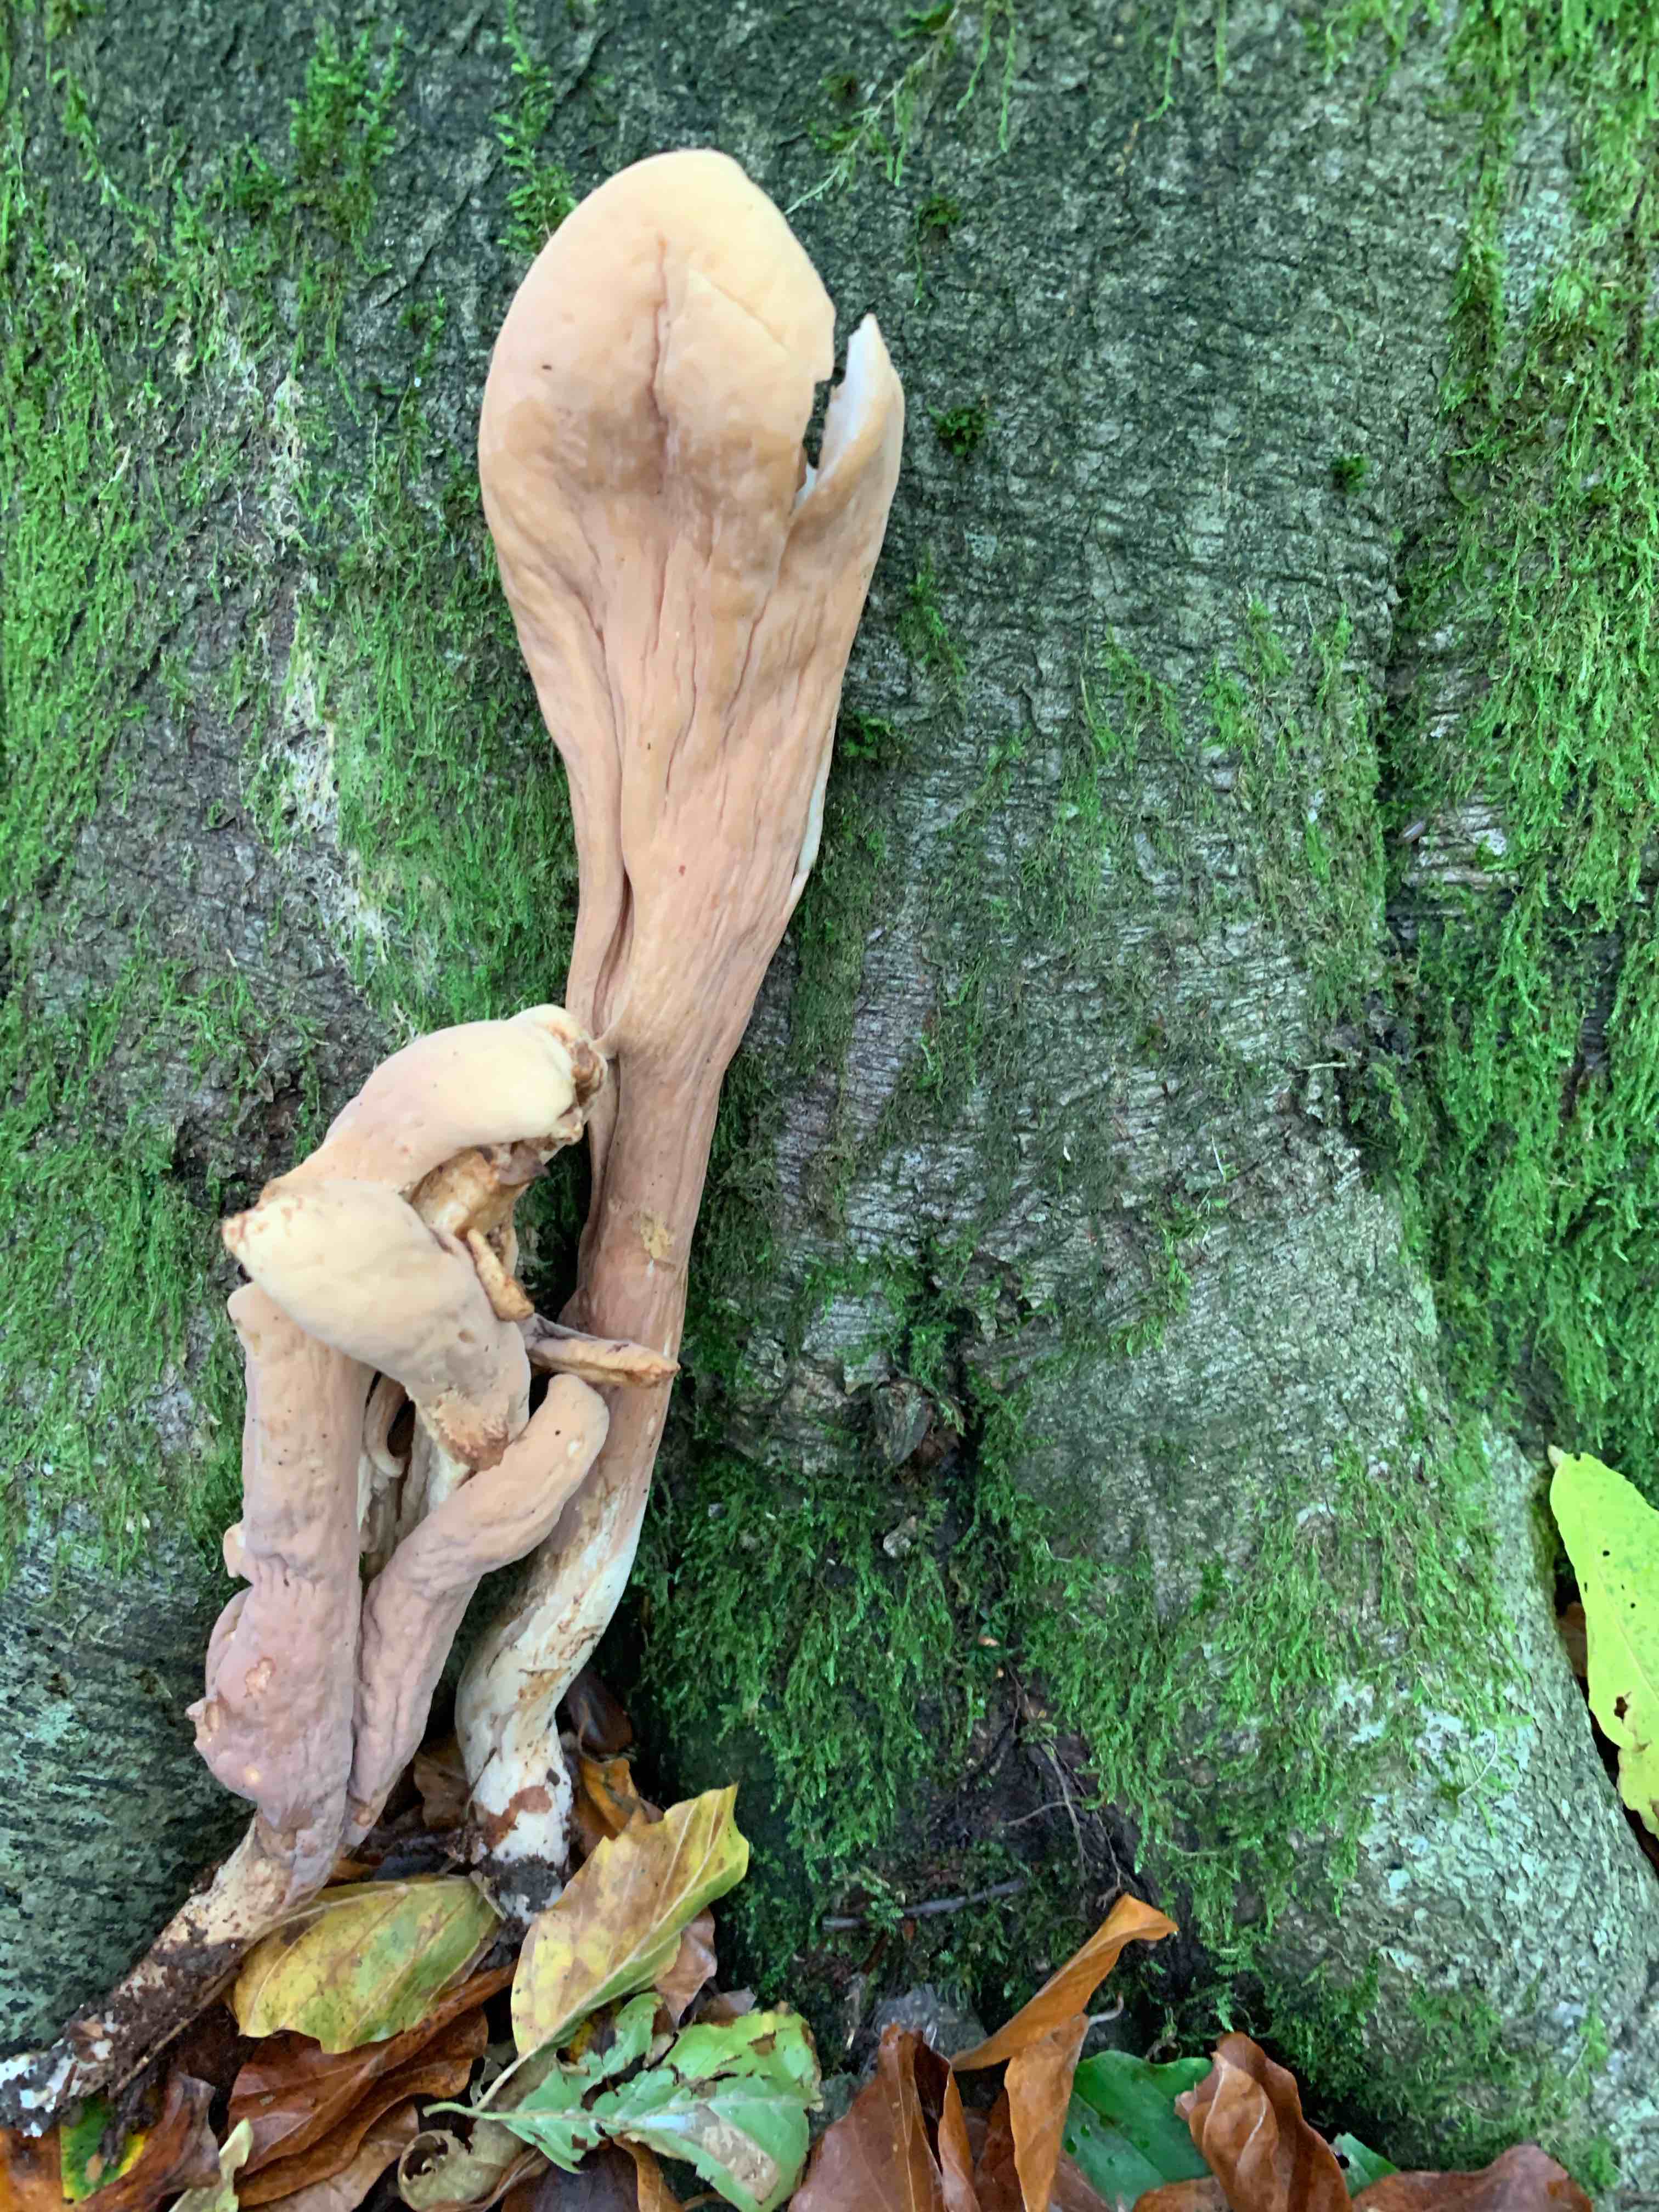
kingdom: Fungi
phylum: Basidiomycota
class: Agaricomycetes
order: Gomphales
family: Clavariadelphaceae
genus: Clavariadelphus
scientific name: Clavariadelphus pistillaris
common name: herkules-kæmpekølle
